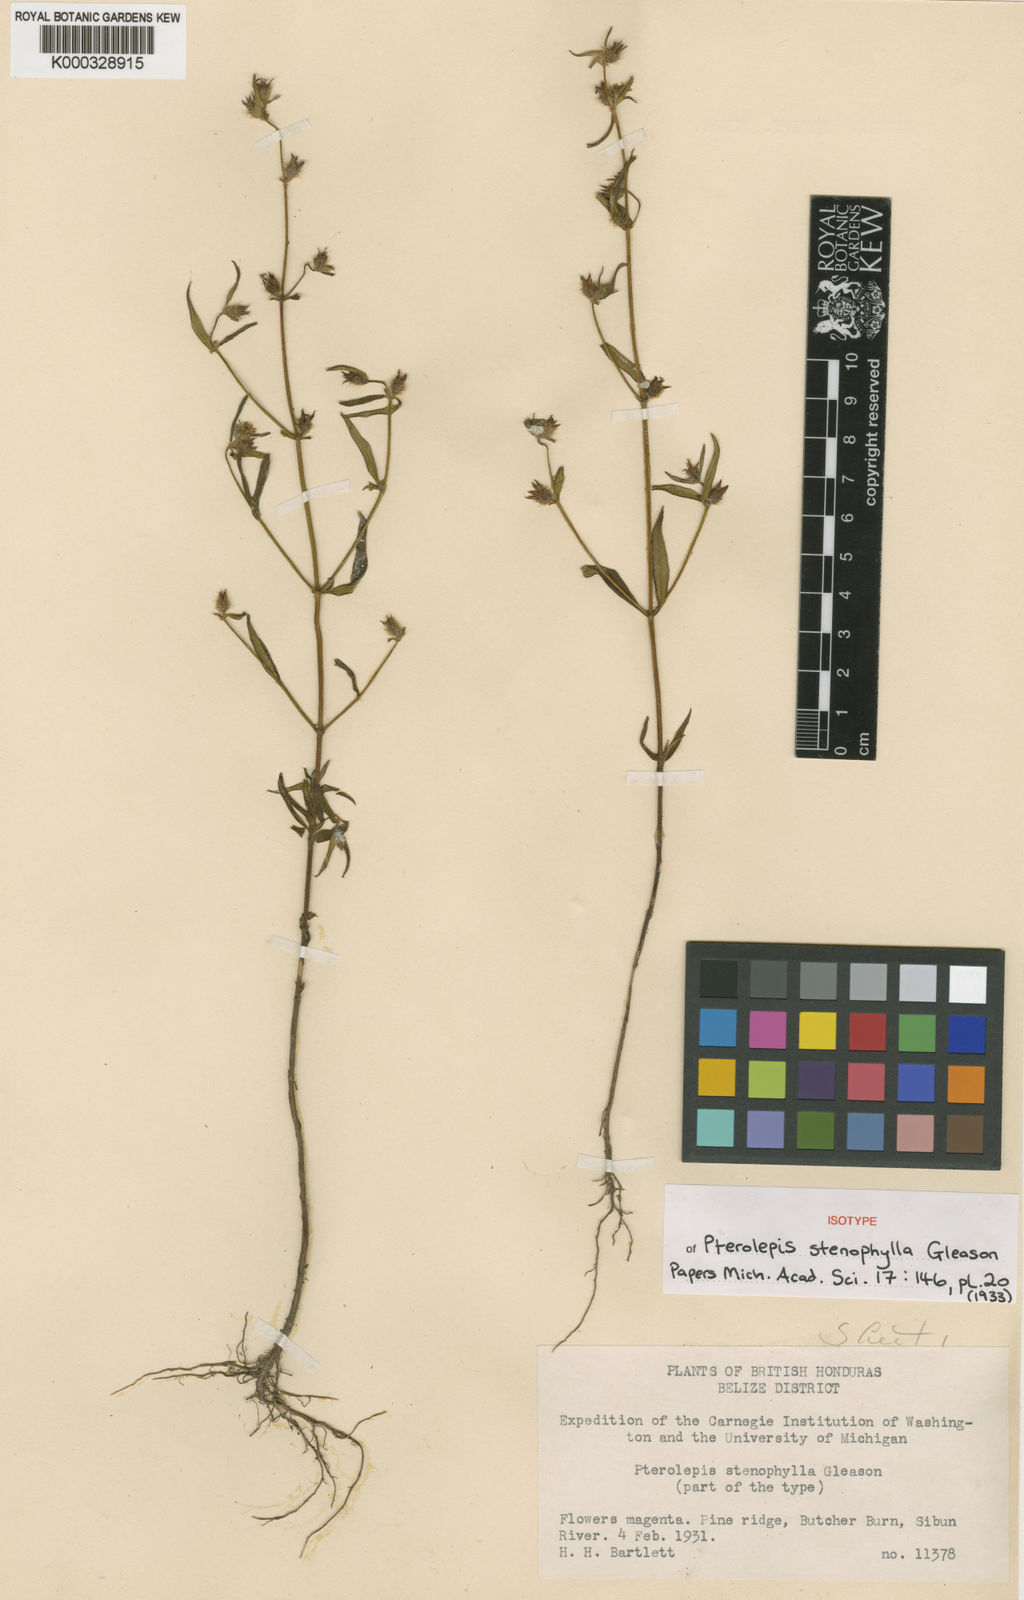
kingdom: Plantae
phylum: Tracheophyta
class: Magnoliopsida
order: Myrtales
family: Melastomataceae
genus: Pterolepis
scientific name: Pterolepis stenophylla
